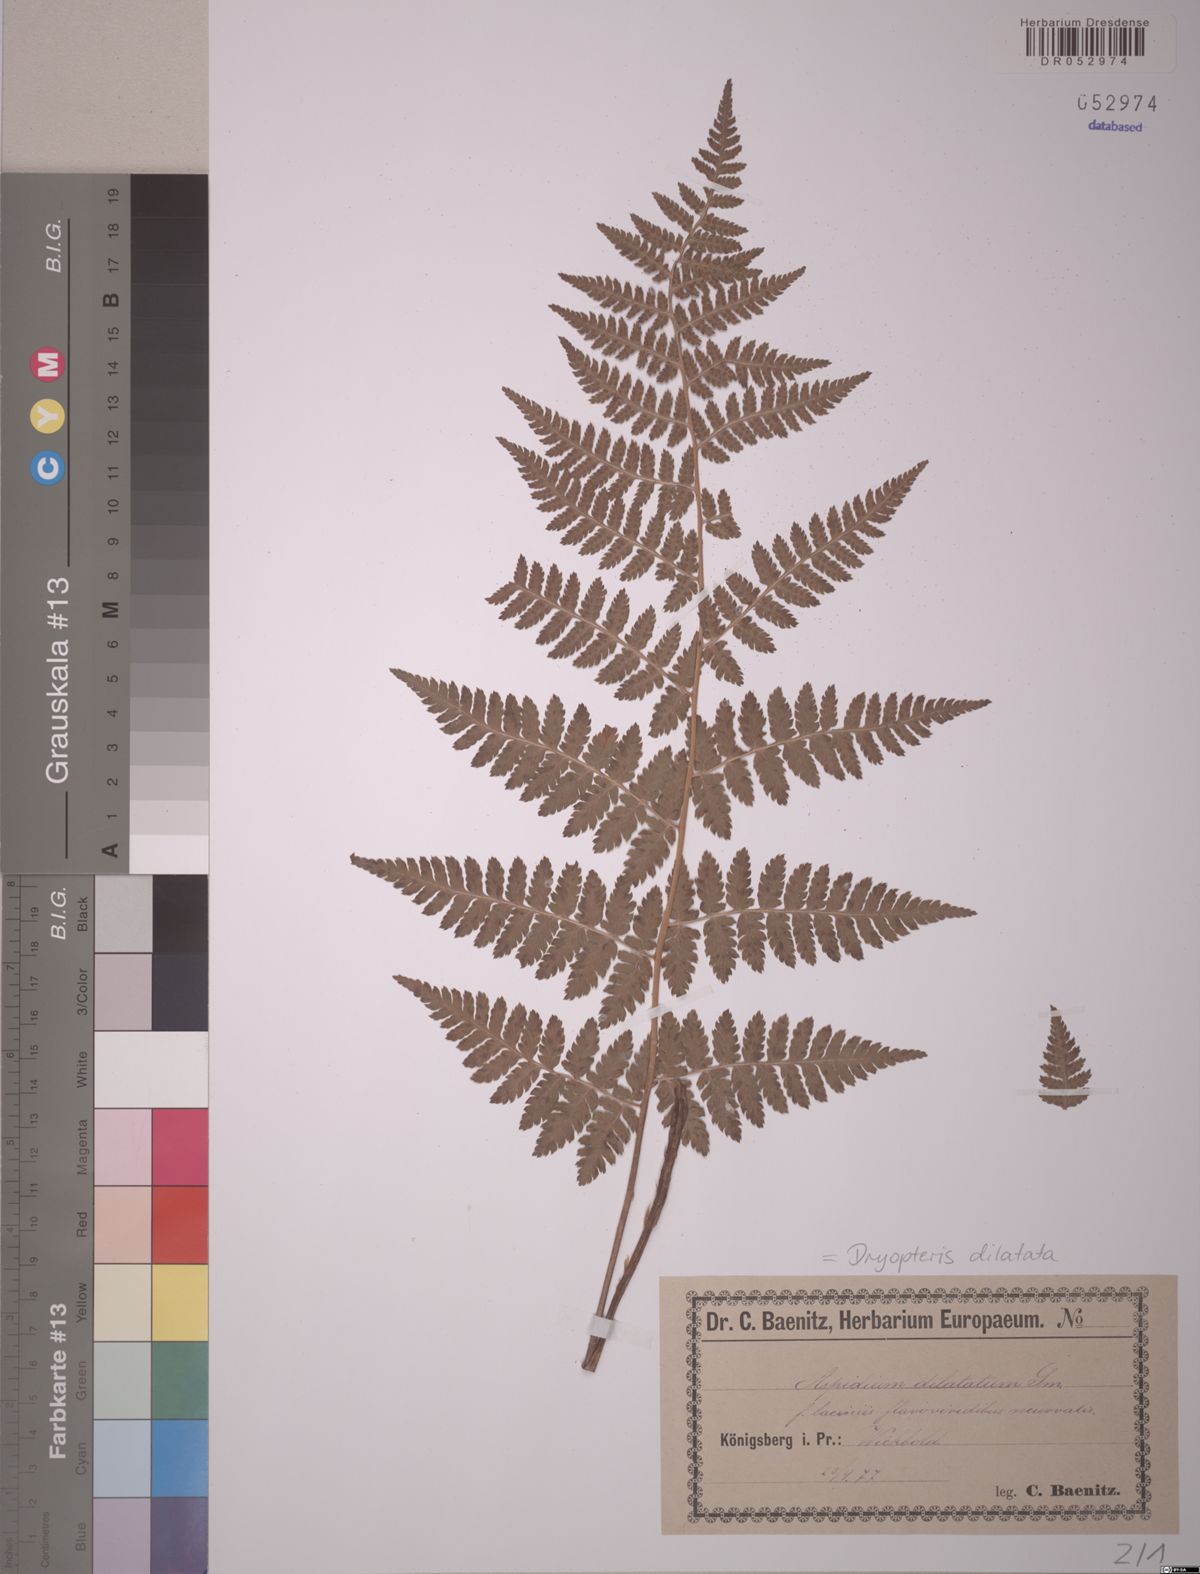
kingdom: Plantae
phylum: Tracheophyta
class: Polypodiopsida
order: Polypodiales
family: Dryopteridaceae
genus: Dryopteris
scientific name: Dryopteris dilatata
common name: Broad buckler-fern
